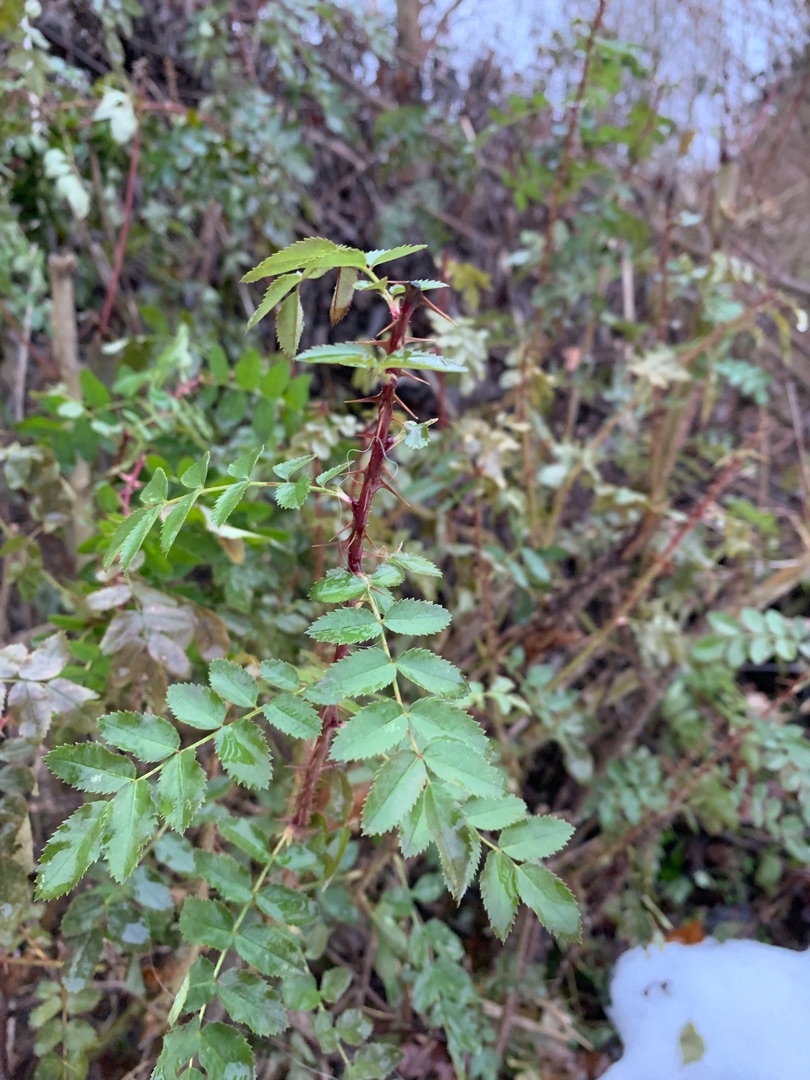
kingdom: Plantae
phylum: Tracheophyta
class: Magnoliopsida
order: Rosales
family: Rosaceae
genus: Rosa
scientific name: Rosa spinosissima
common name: Klit-rose
